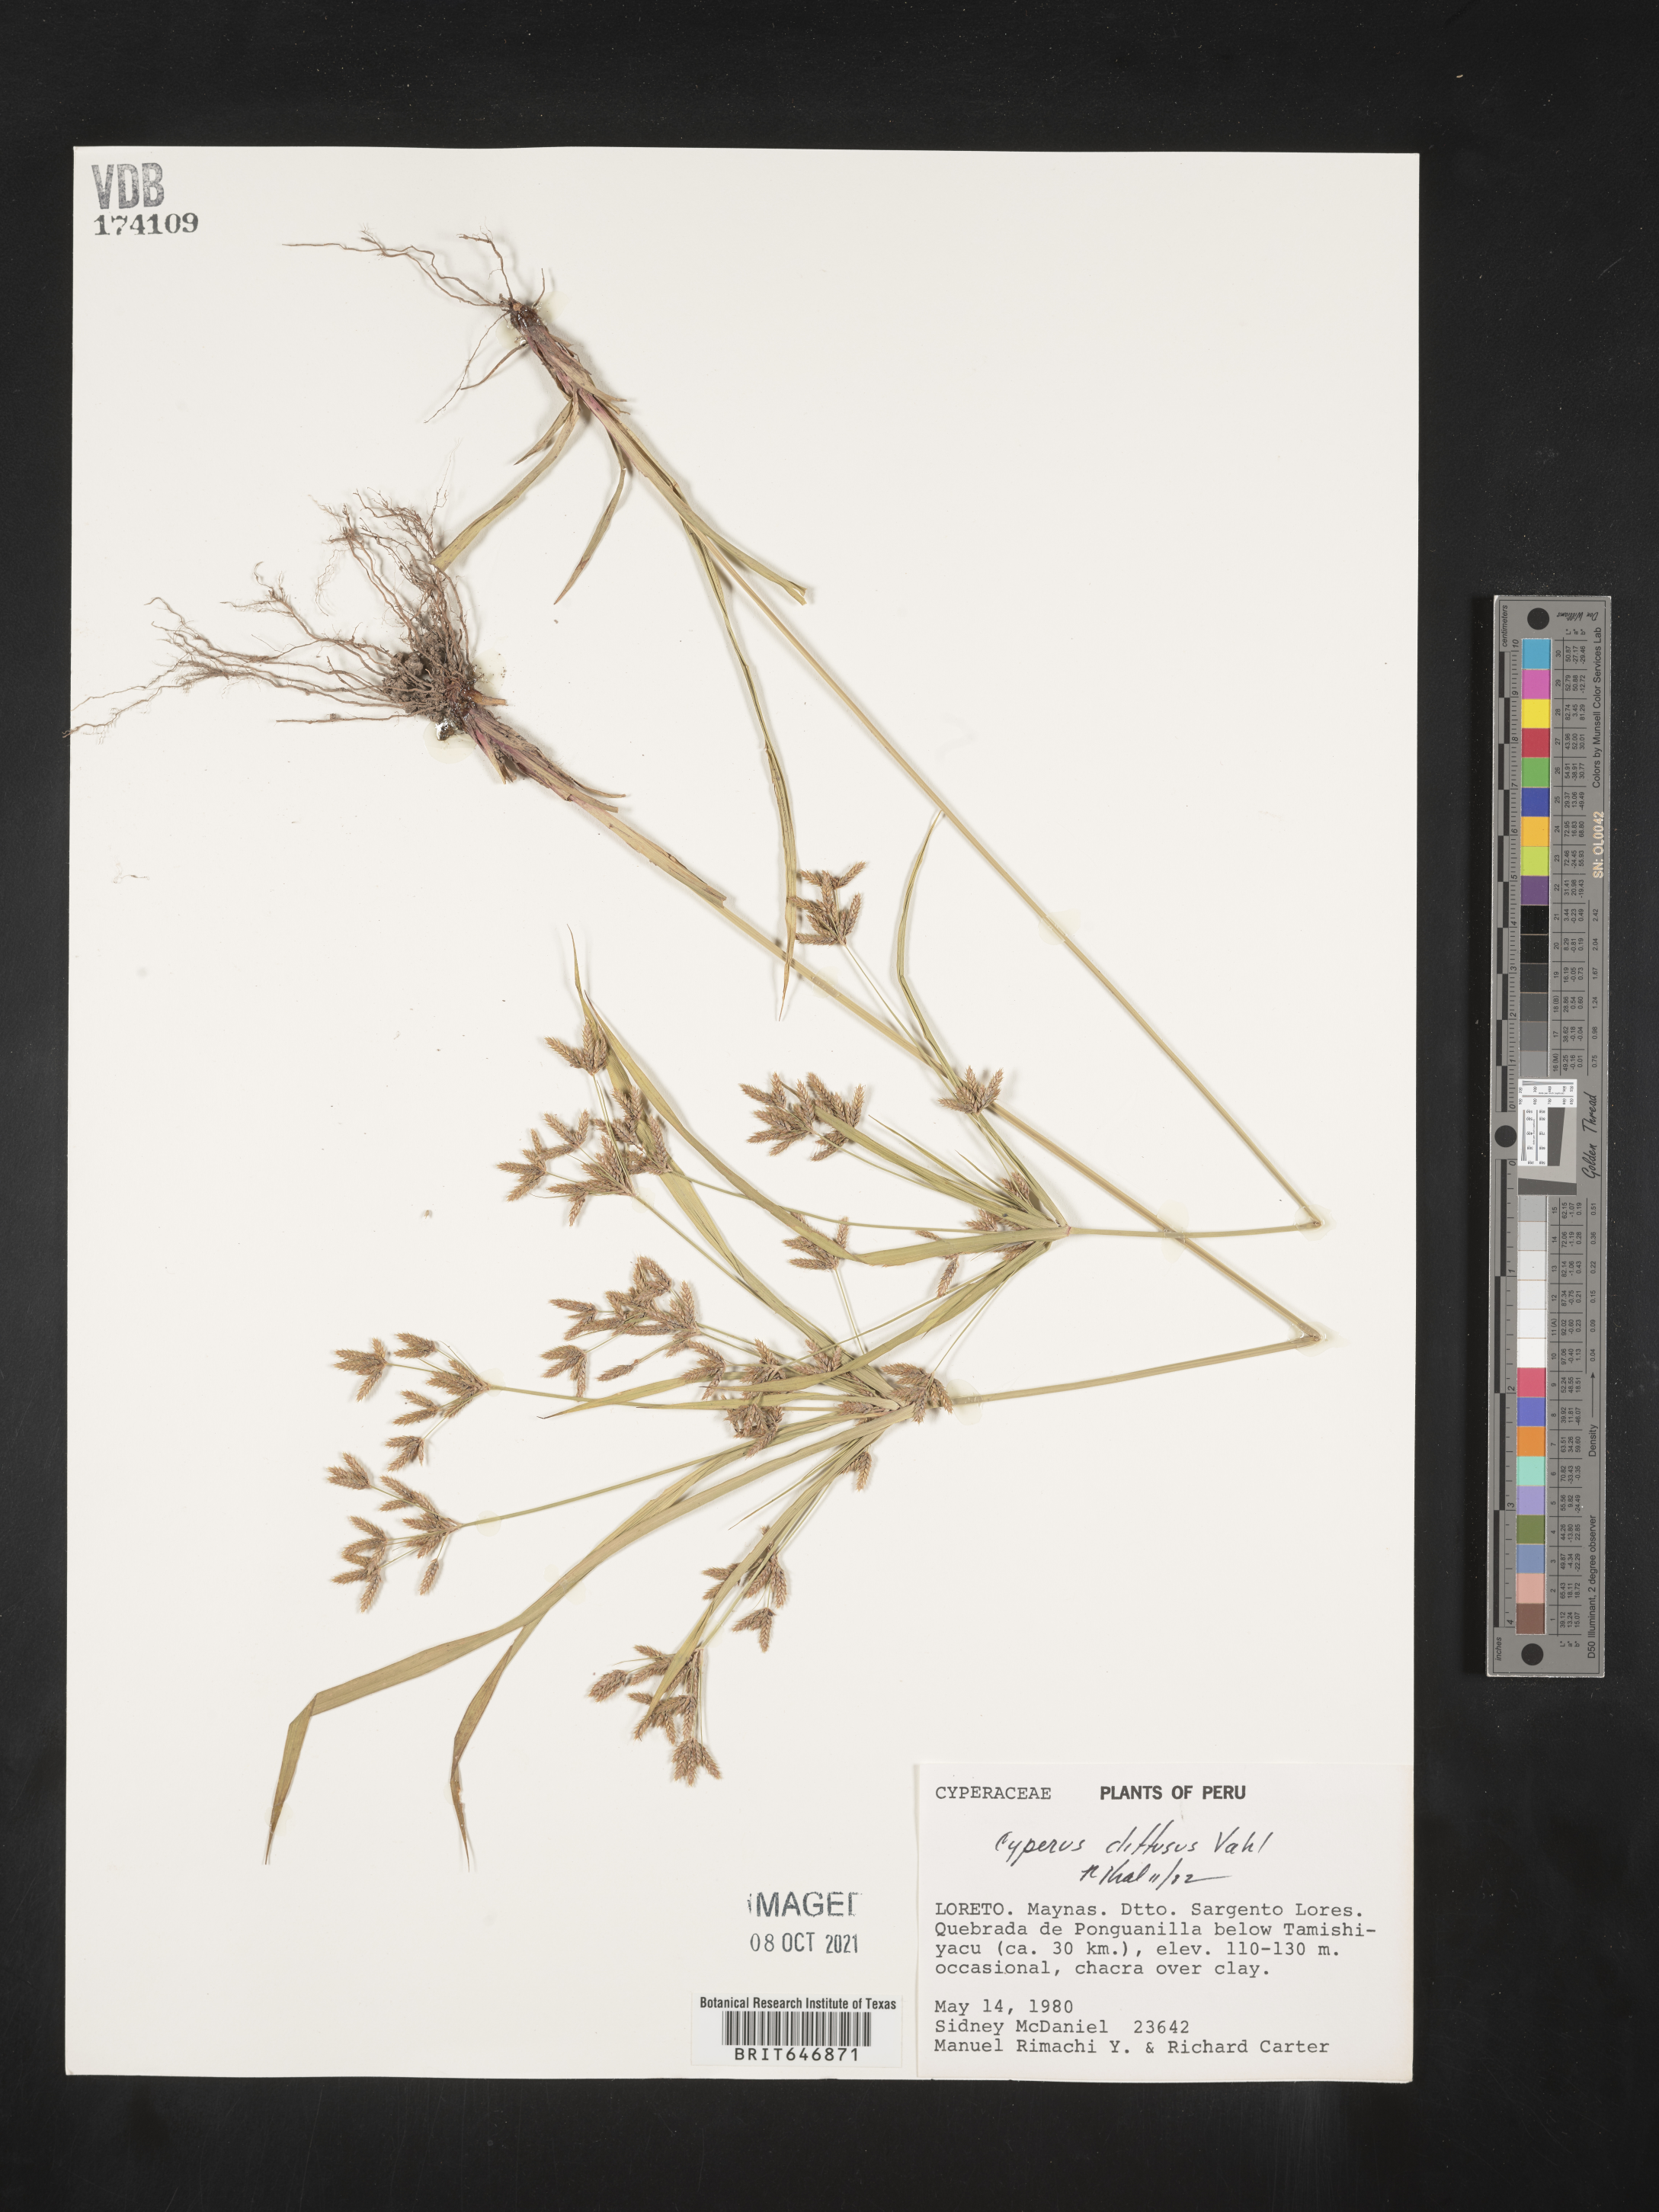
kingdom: Plantae
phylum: Tracheophyta
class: Liliopsida
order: Poales
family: Cyperaceae
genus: Cyperus
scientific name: Cyperus diffusus
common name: Dwarf umbrella grass
